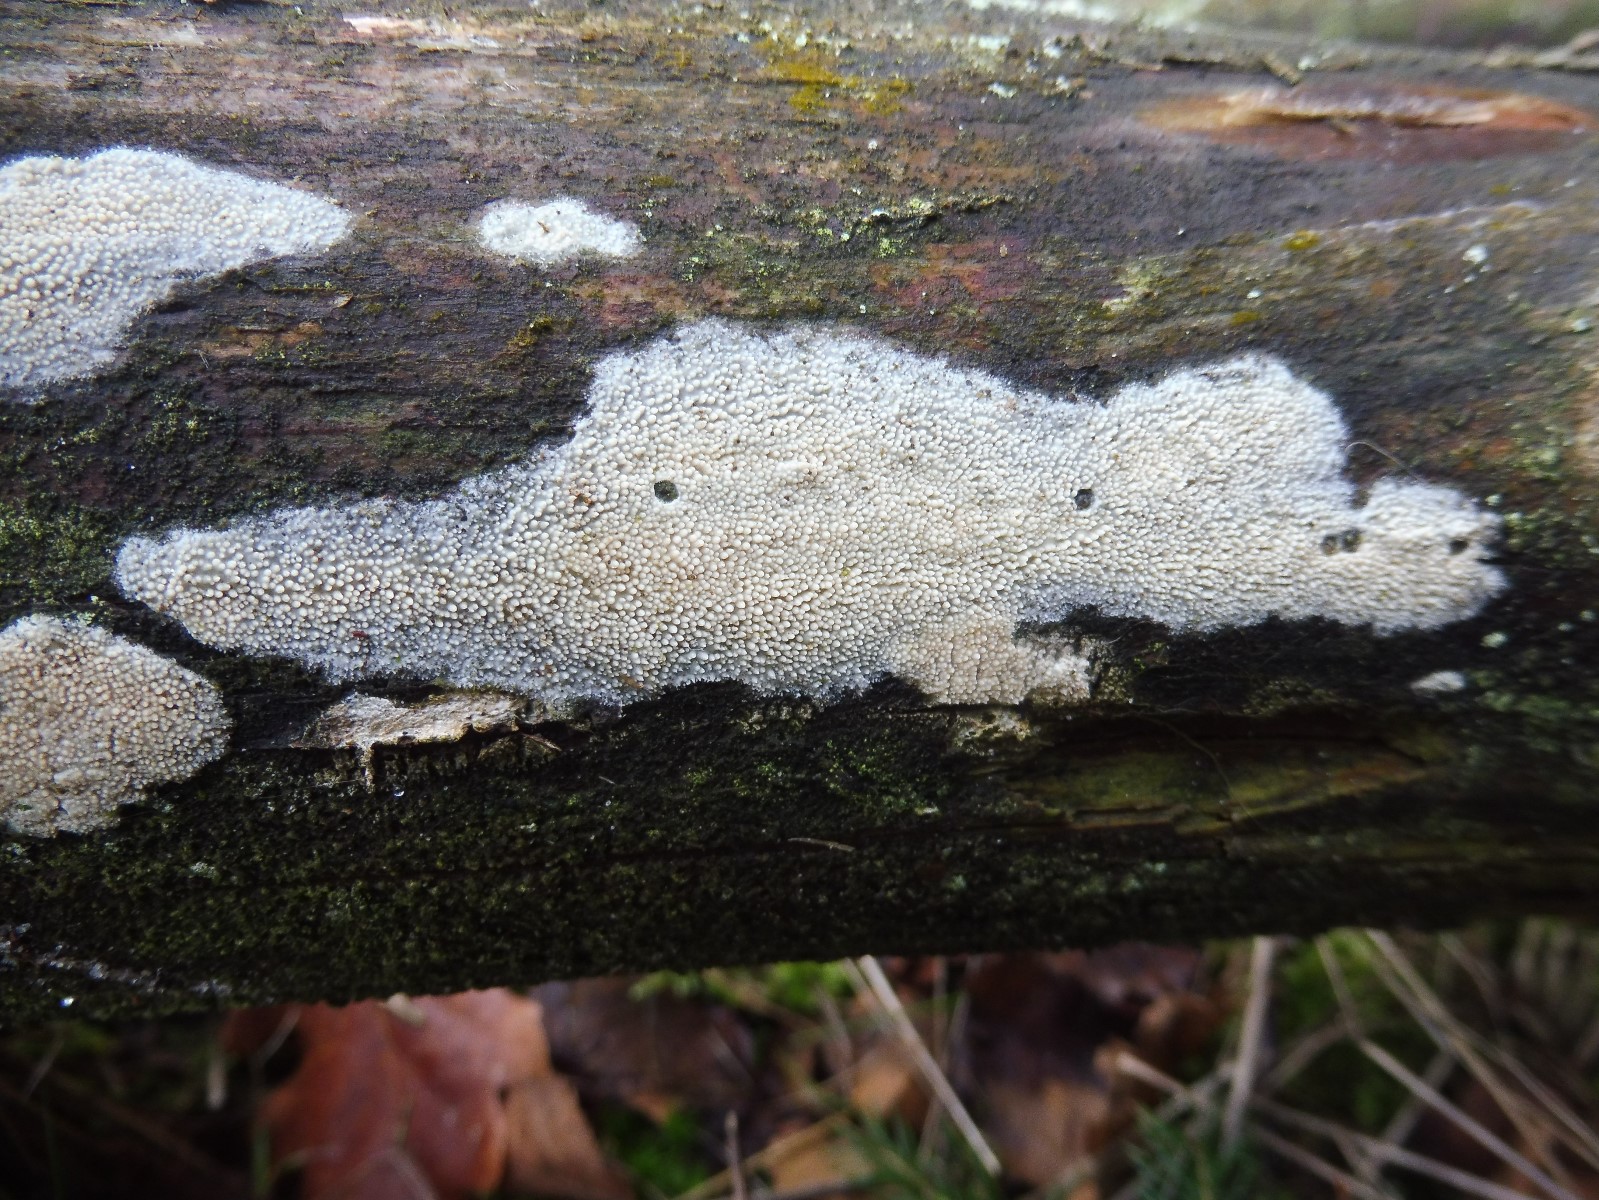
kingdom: Fungi
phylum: Basidiomycota
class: Agaricomycetes
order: Hymenochaetales
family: Rickenellaceae
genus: Resinicium
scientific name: Resinicium bicolor
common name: almindelig vokstand
